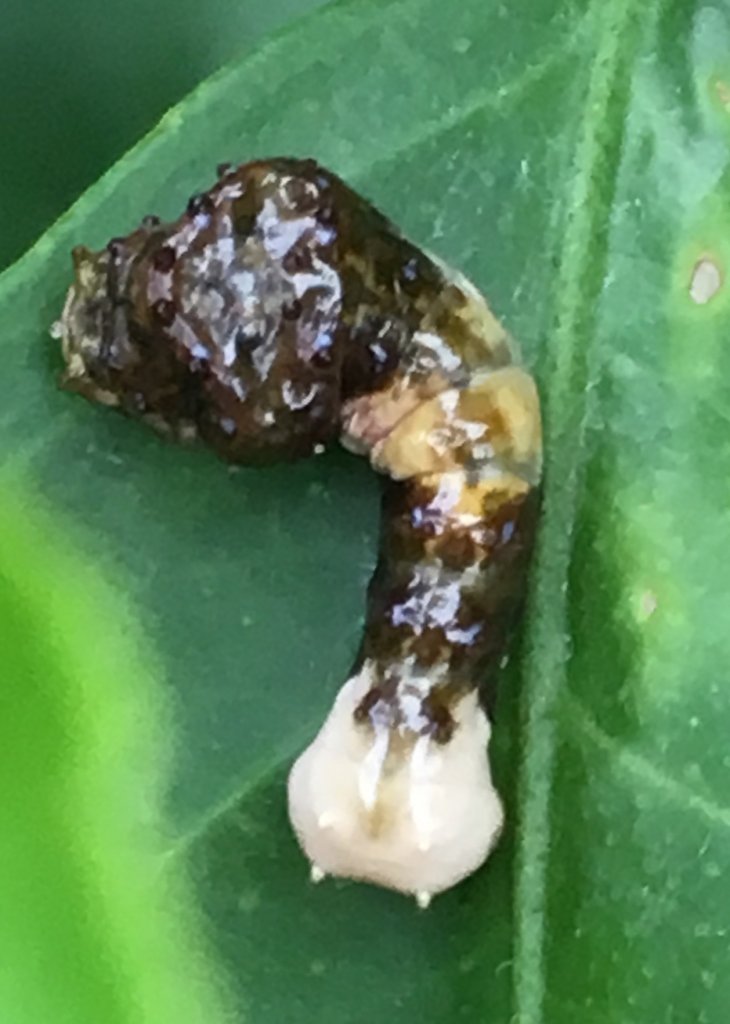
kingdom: Animalia
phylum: Arthropoda
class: Insecta
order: Lepidoptera
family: Papilionidae
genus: Papilio
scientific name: Papilio andraemon
